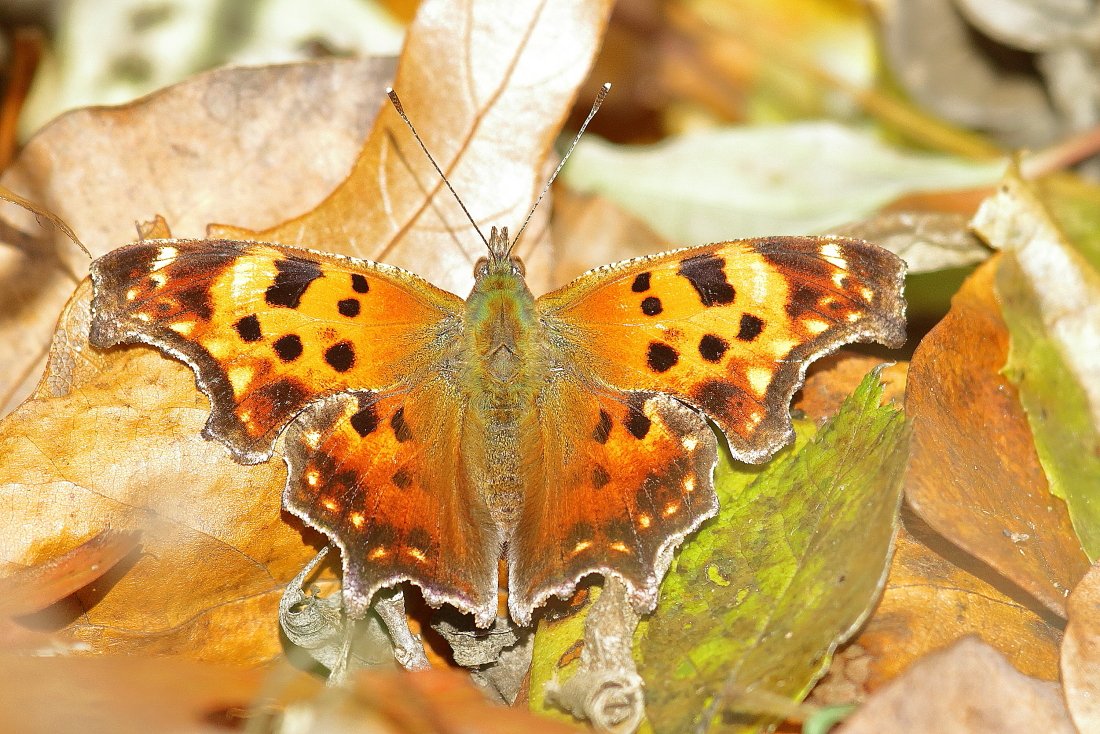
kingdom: Animalia
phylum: Arthropoda
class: Insecta
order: Lepidoptera
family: Nymphalidae
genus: Polygonia
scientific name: Polygonia comma
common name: Eastern Comma
